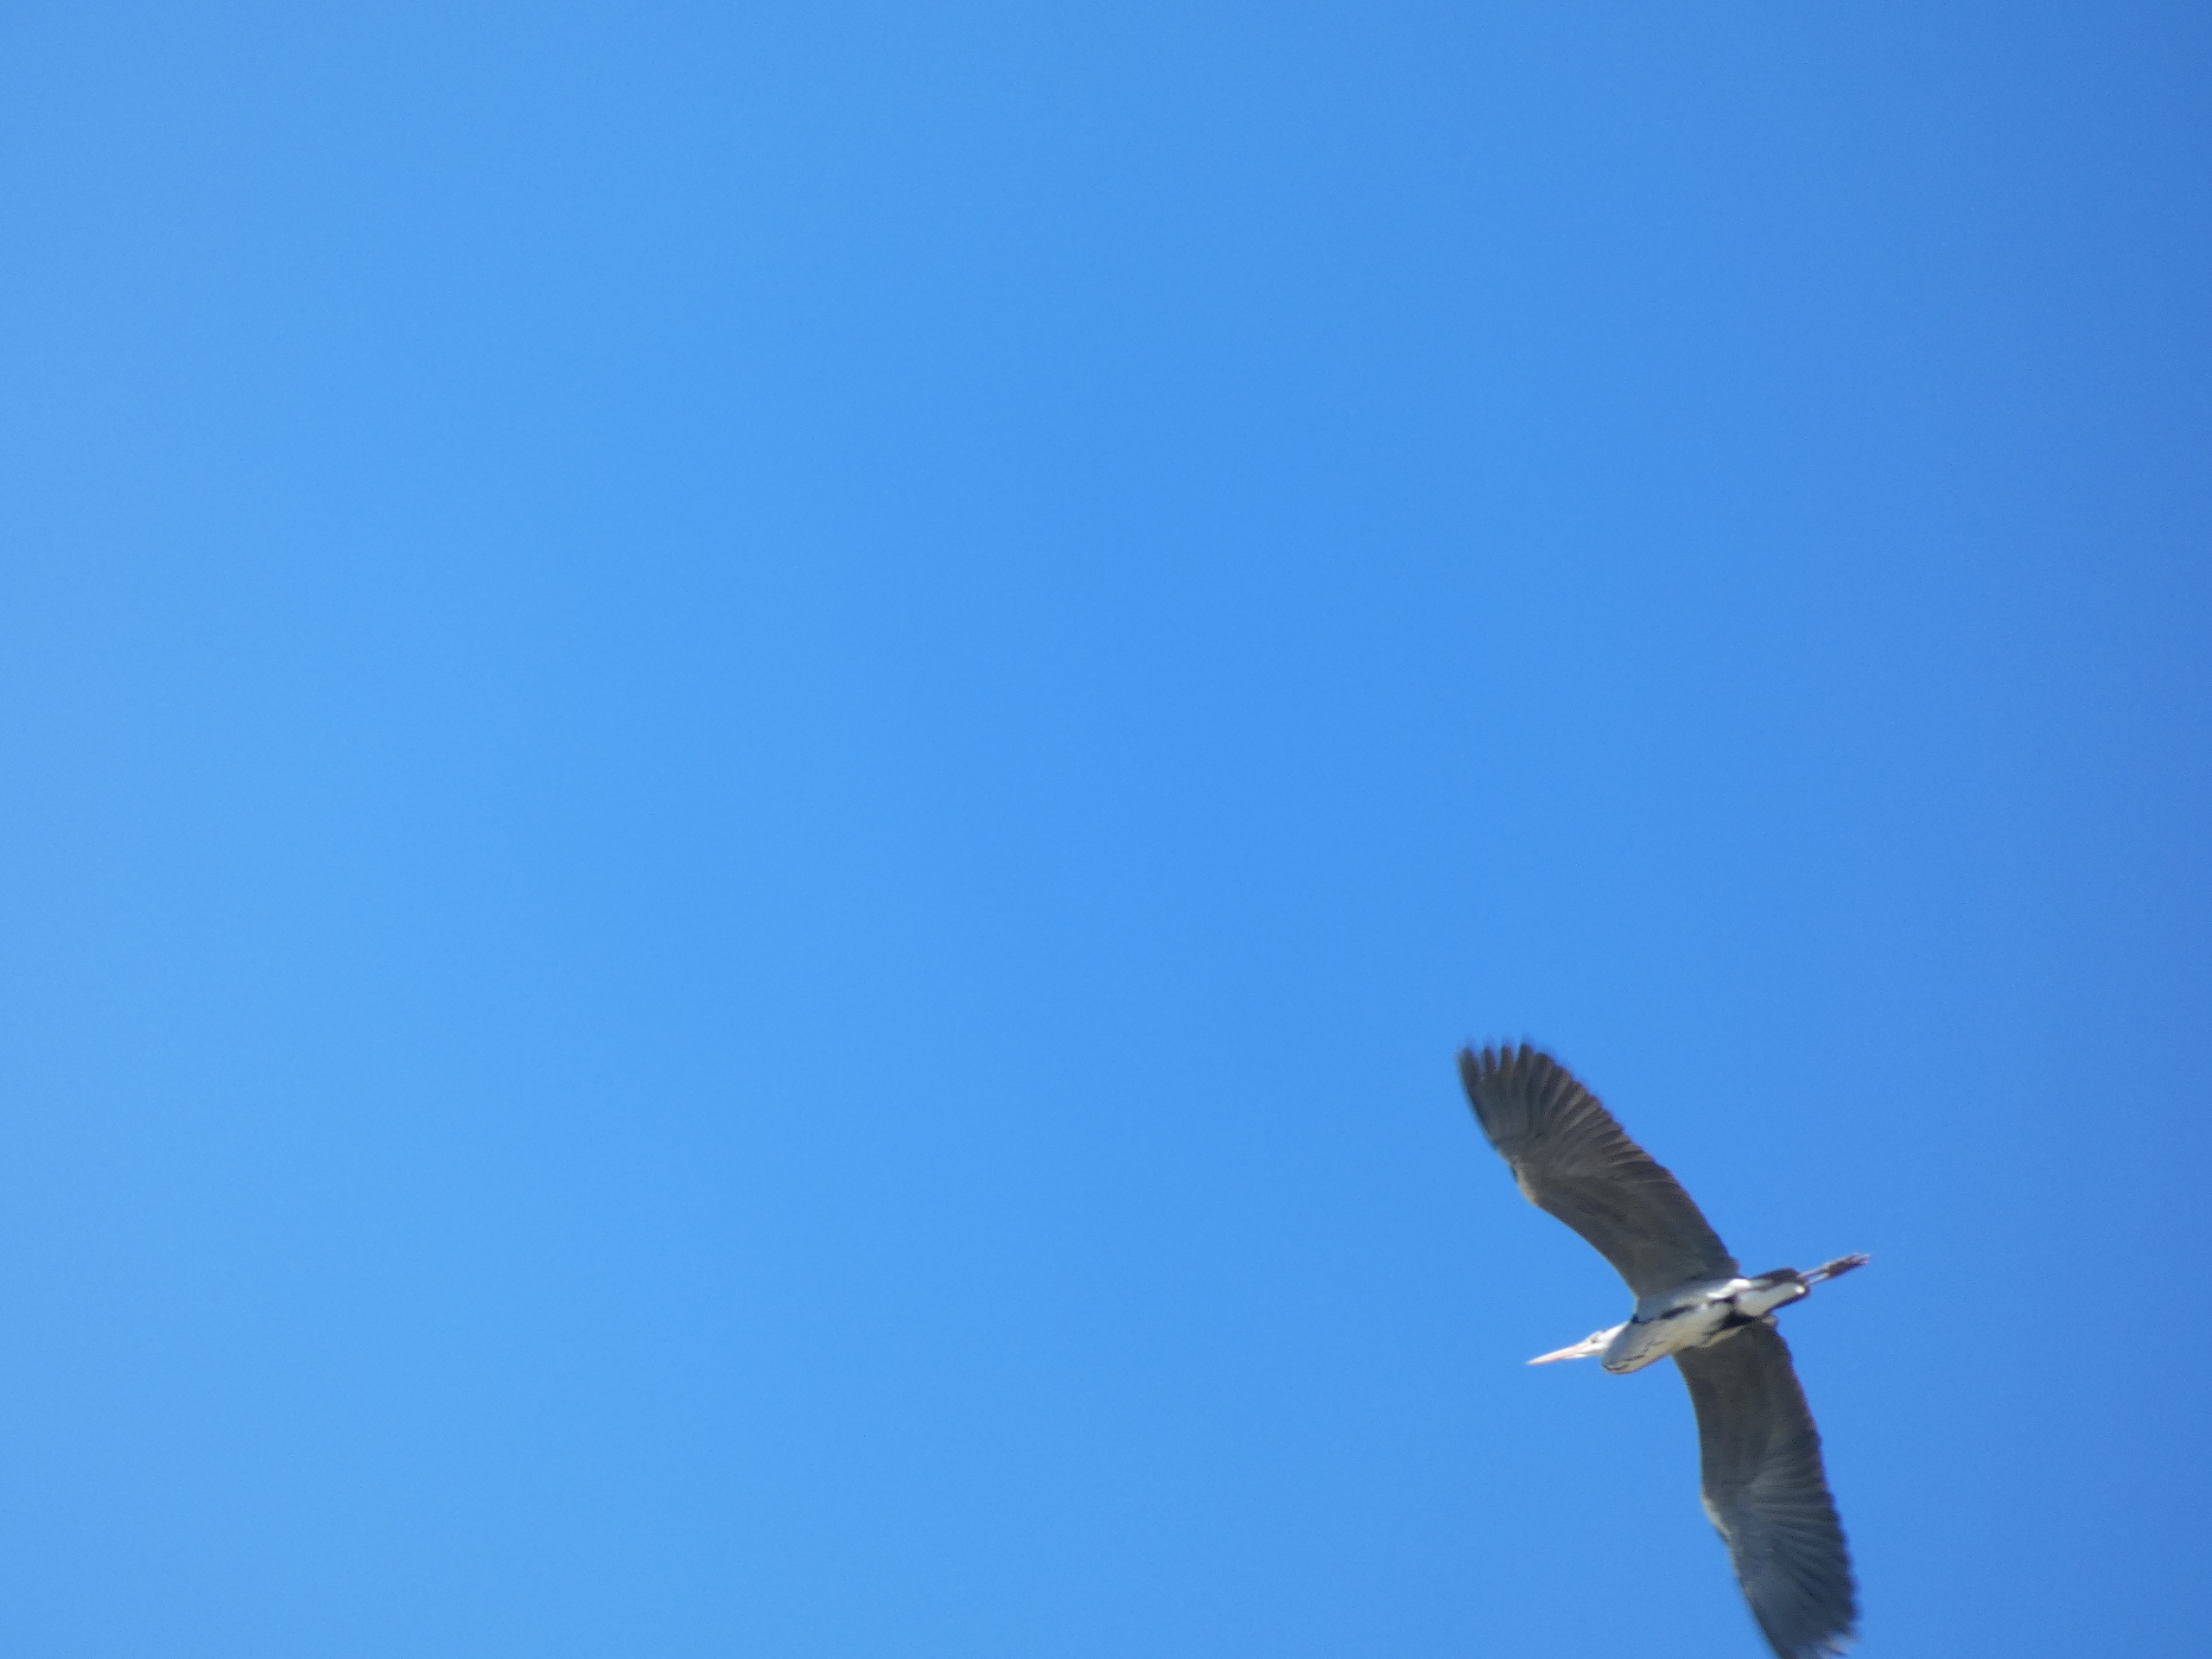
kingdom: Animalia
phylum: Chordata
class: Aves
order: Pelecaniformes
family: Ardeidae
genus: Ardea
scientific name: Ardea cinerea
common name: Fiskehejre
